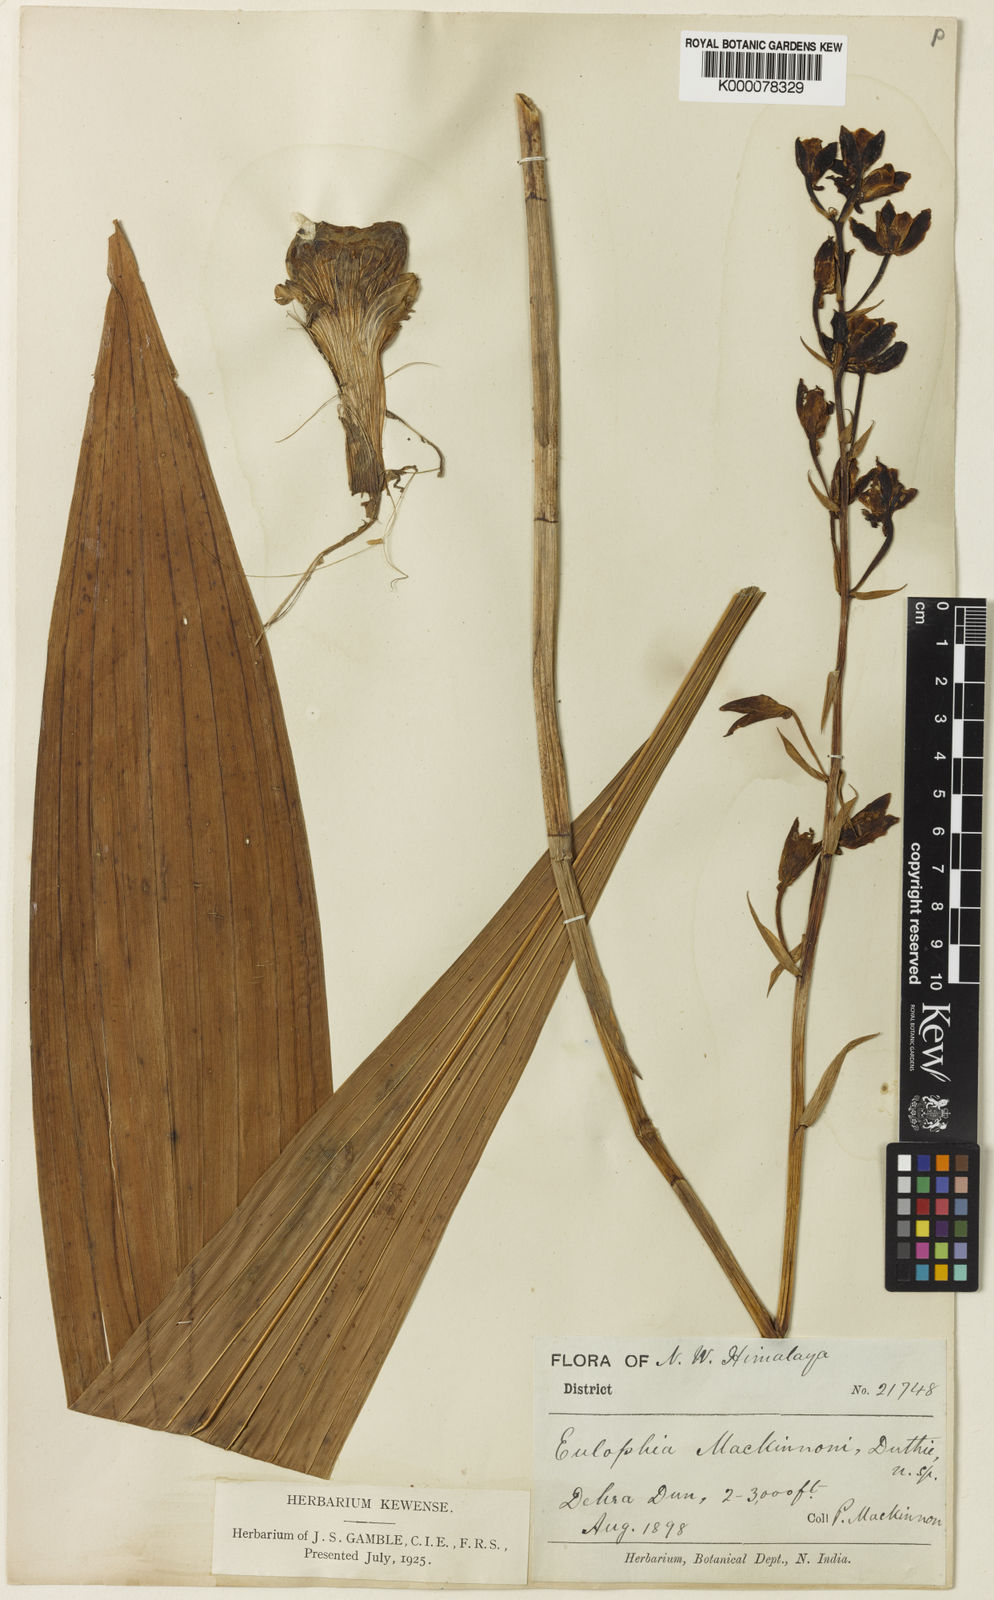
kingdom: Plantae
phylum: Tracheophyta
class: Liliopsida
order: Asparagales
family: Orchidaceae
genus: Eulophia
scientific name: Eulophia mackinnonii
